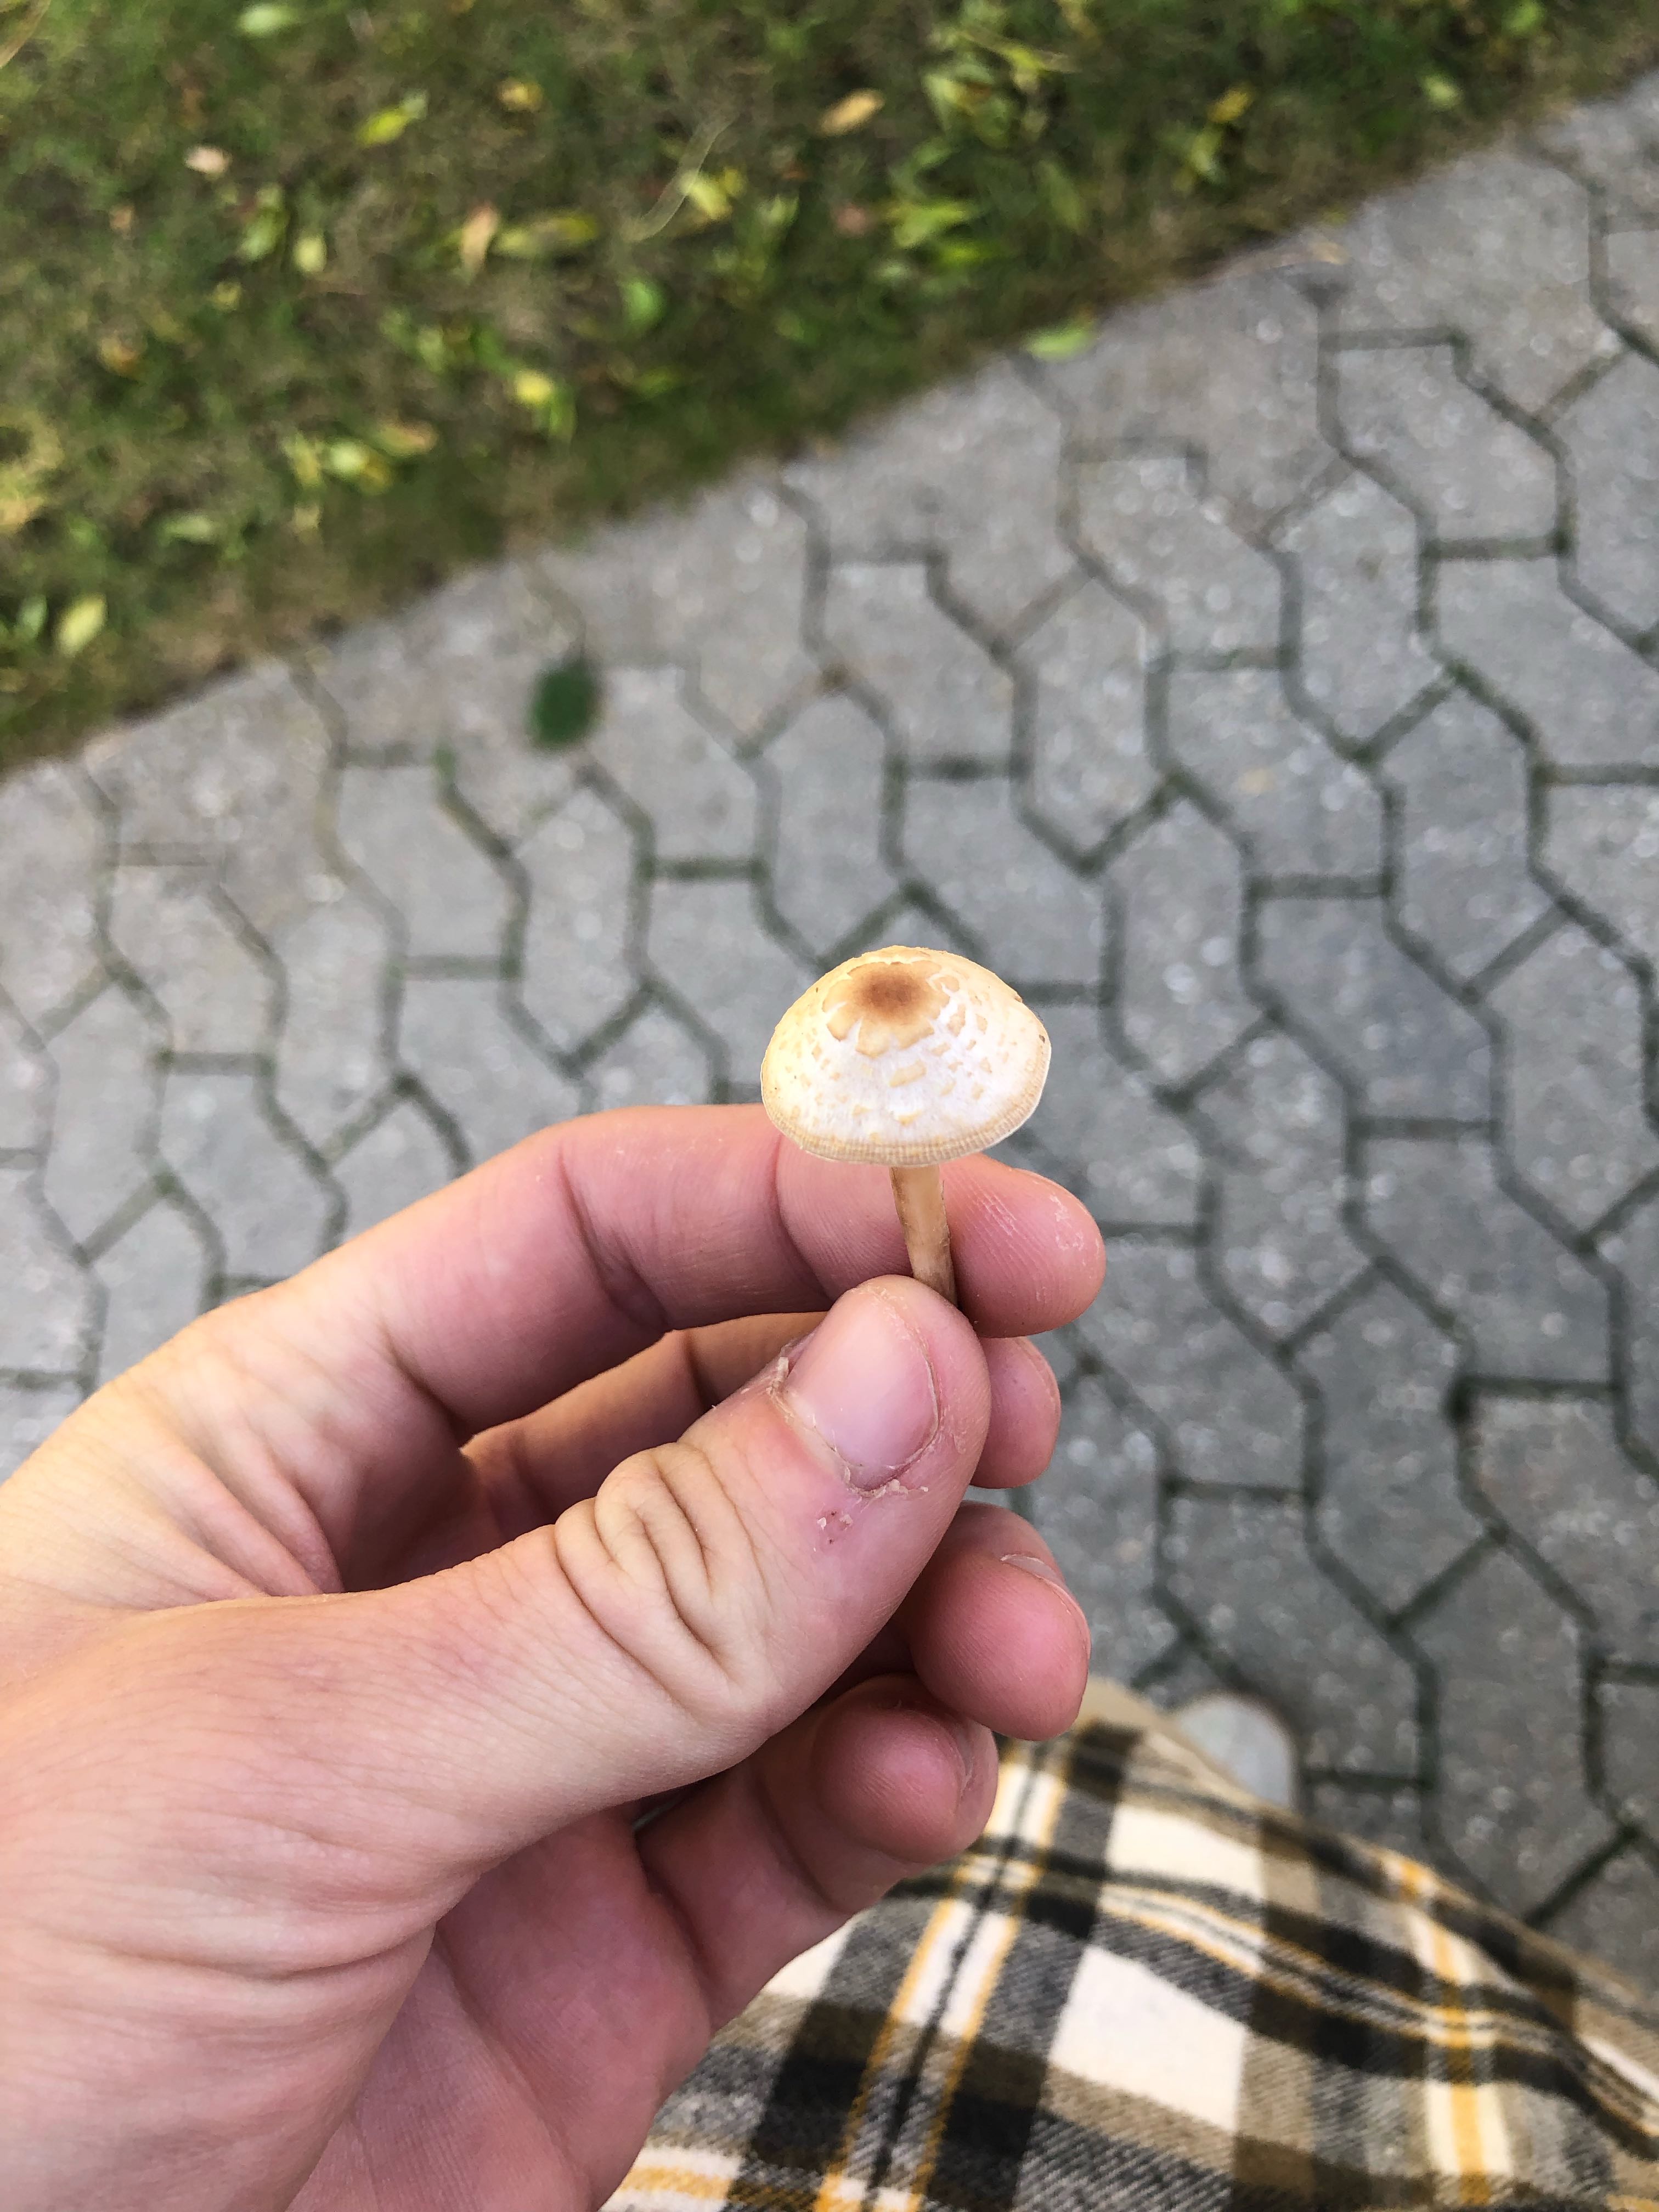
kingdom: Fungi
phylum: Basidiomycota
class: Agaricomycetes
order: Agaricales
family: Agaricaceae
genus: Lepiota
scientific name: Lepiota cristata
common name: stinkende parasolhat
